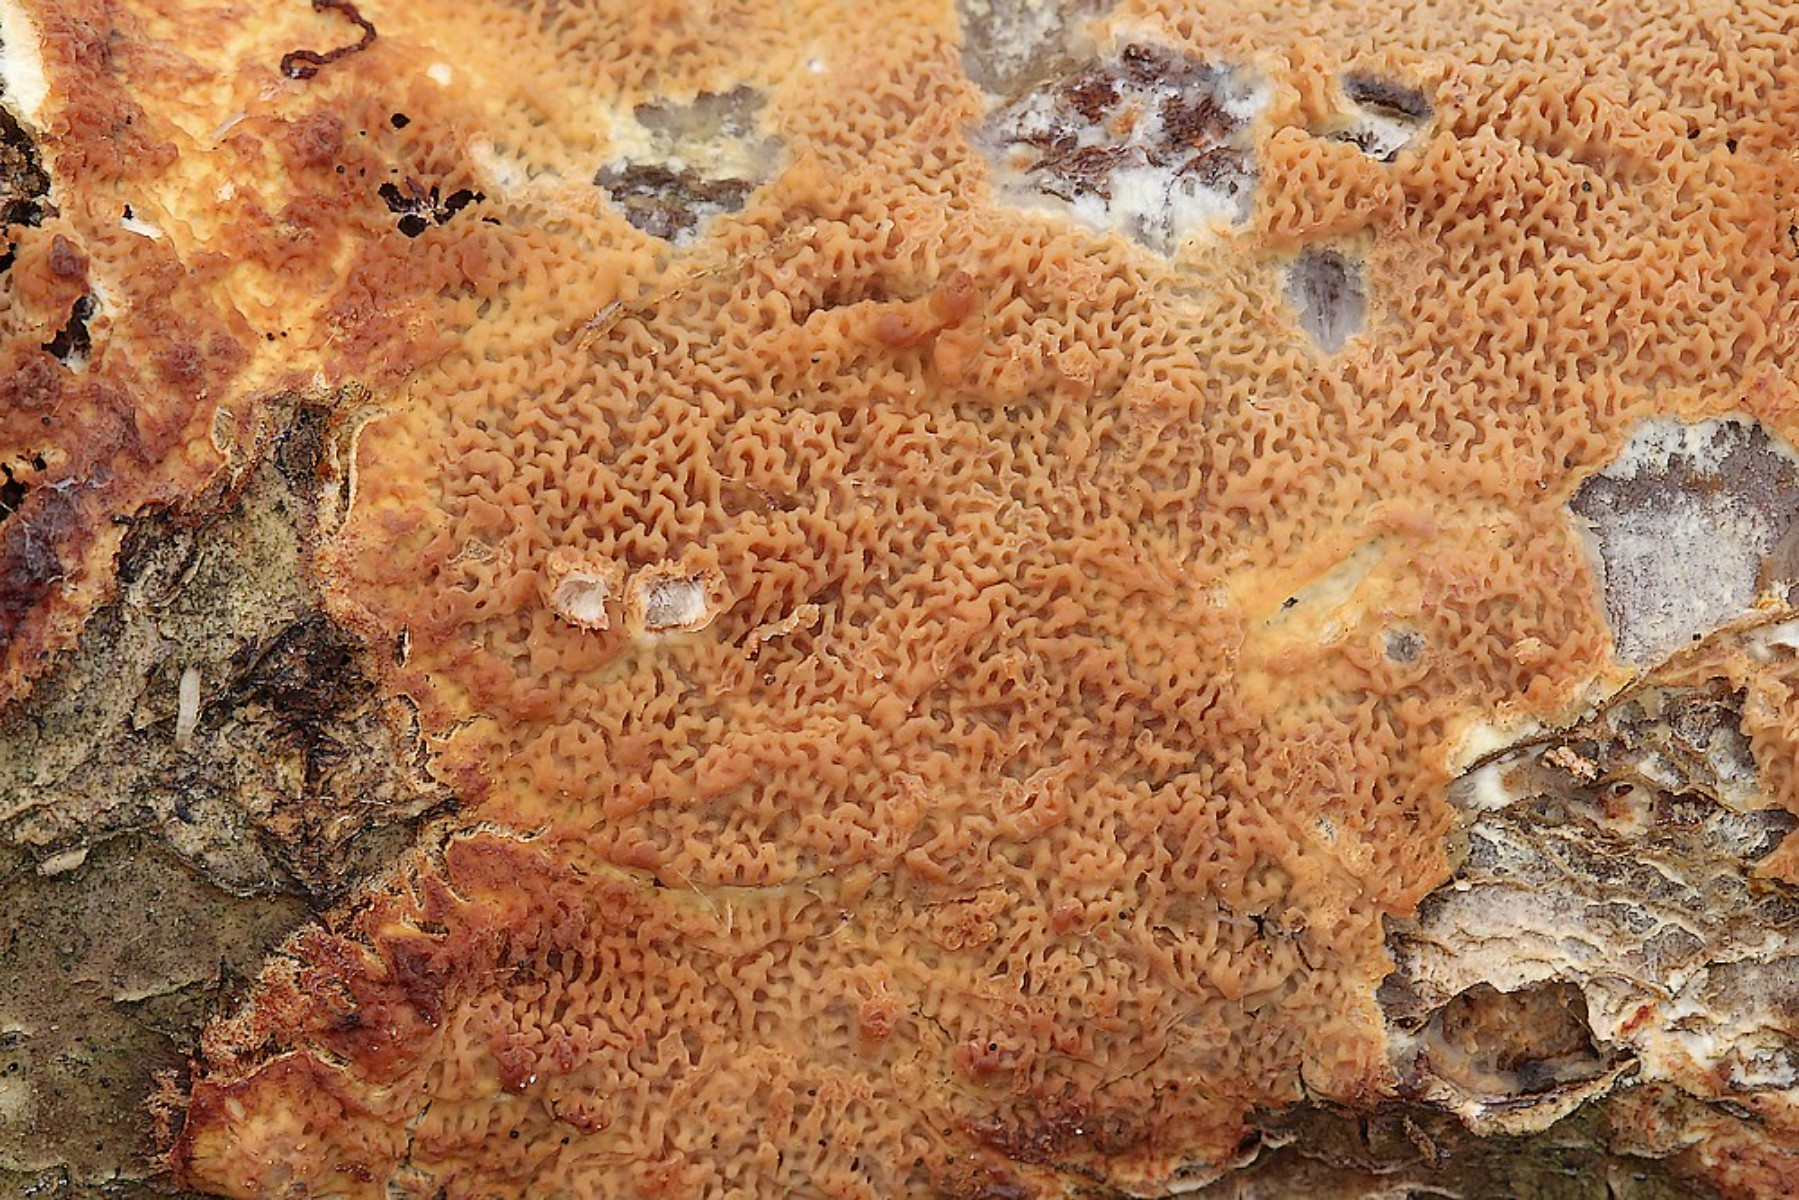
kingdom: Fungi
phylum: Basidiomycota
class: Agaricomycetes
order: Polyporales
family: Meruliaceae
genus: Phlebia
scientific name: Phlebia rufa
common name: ege-åresvamp
